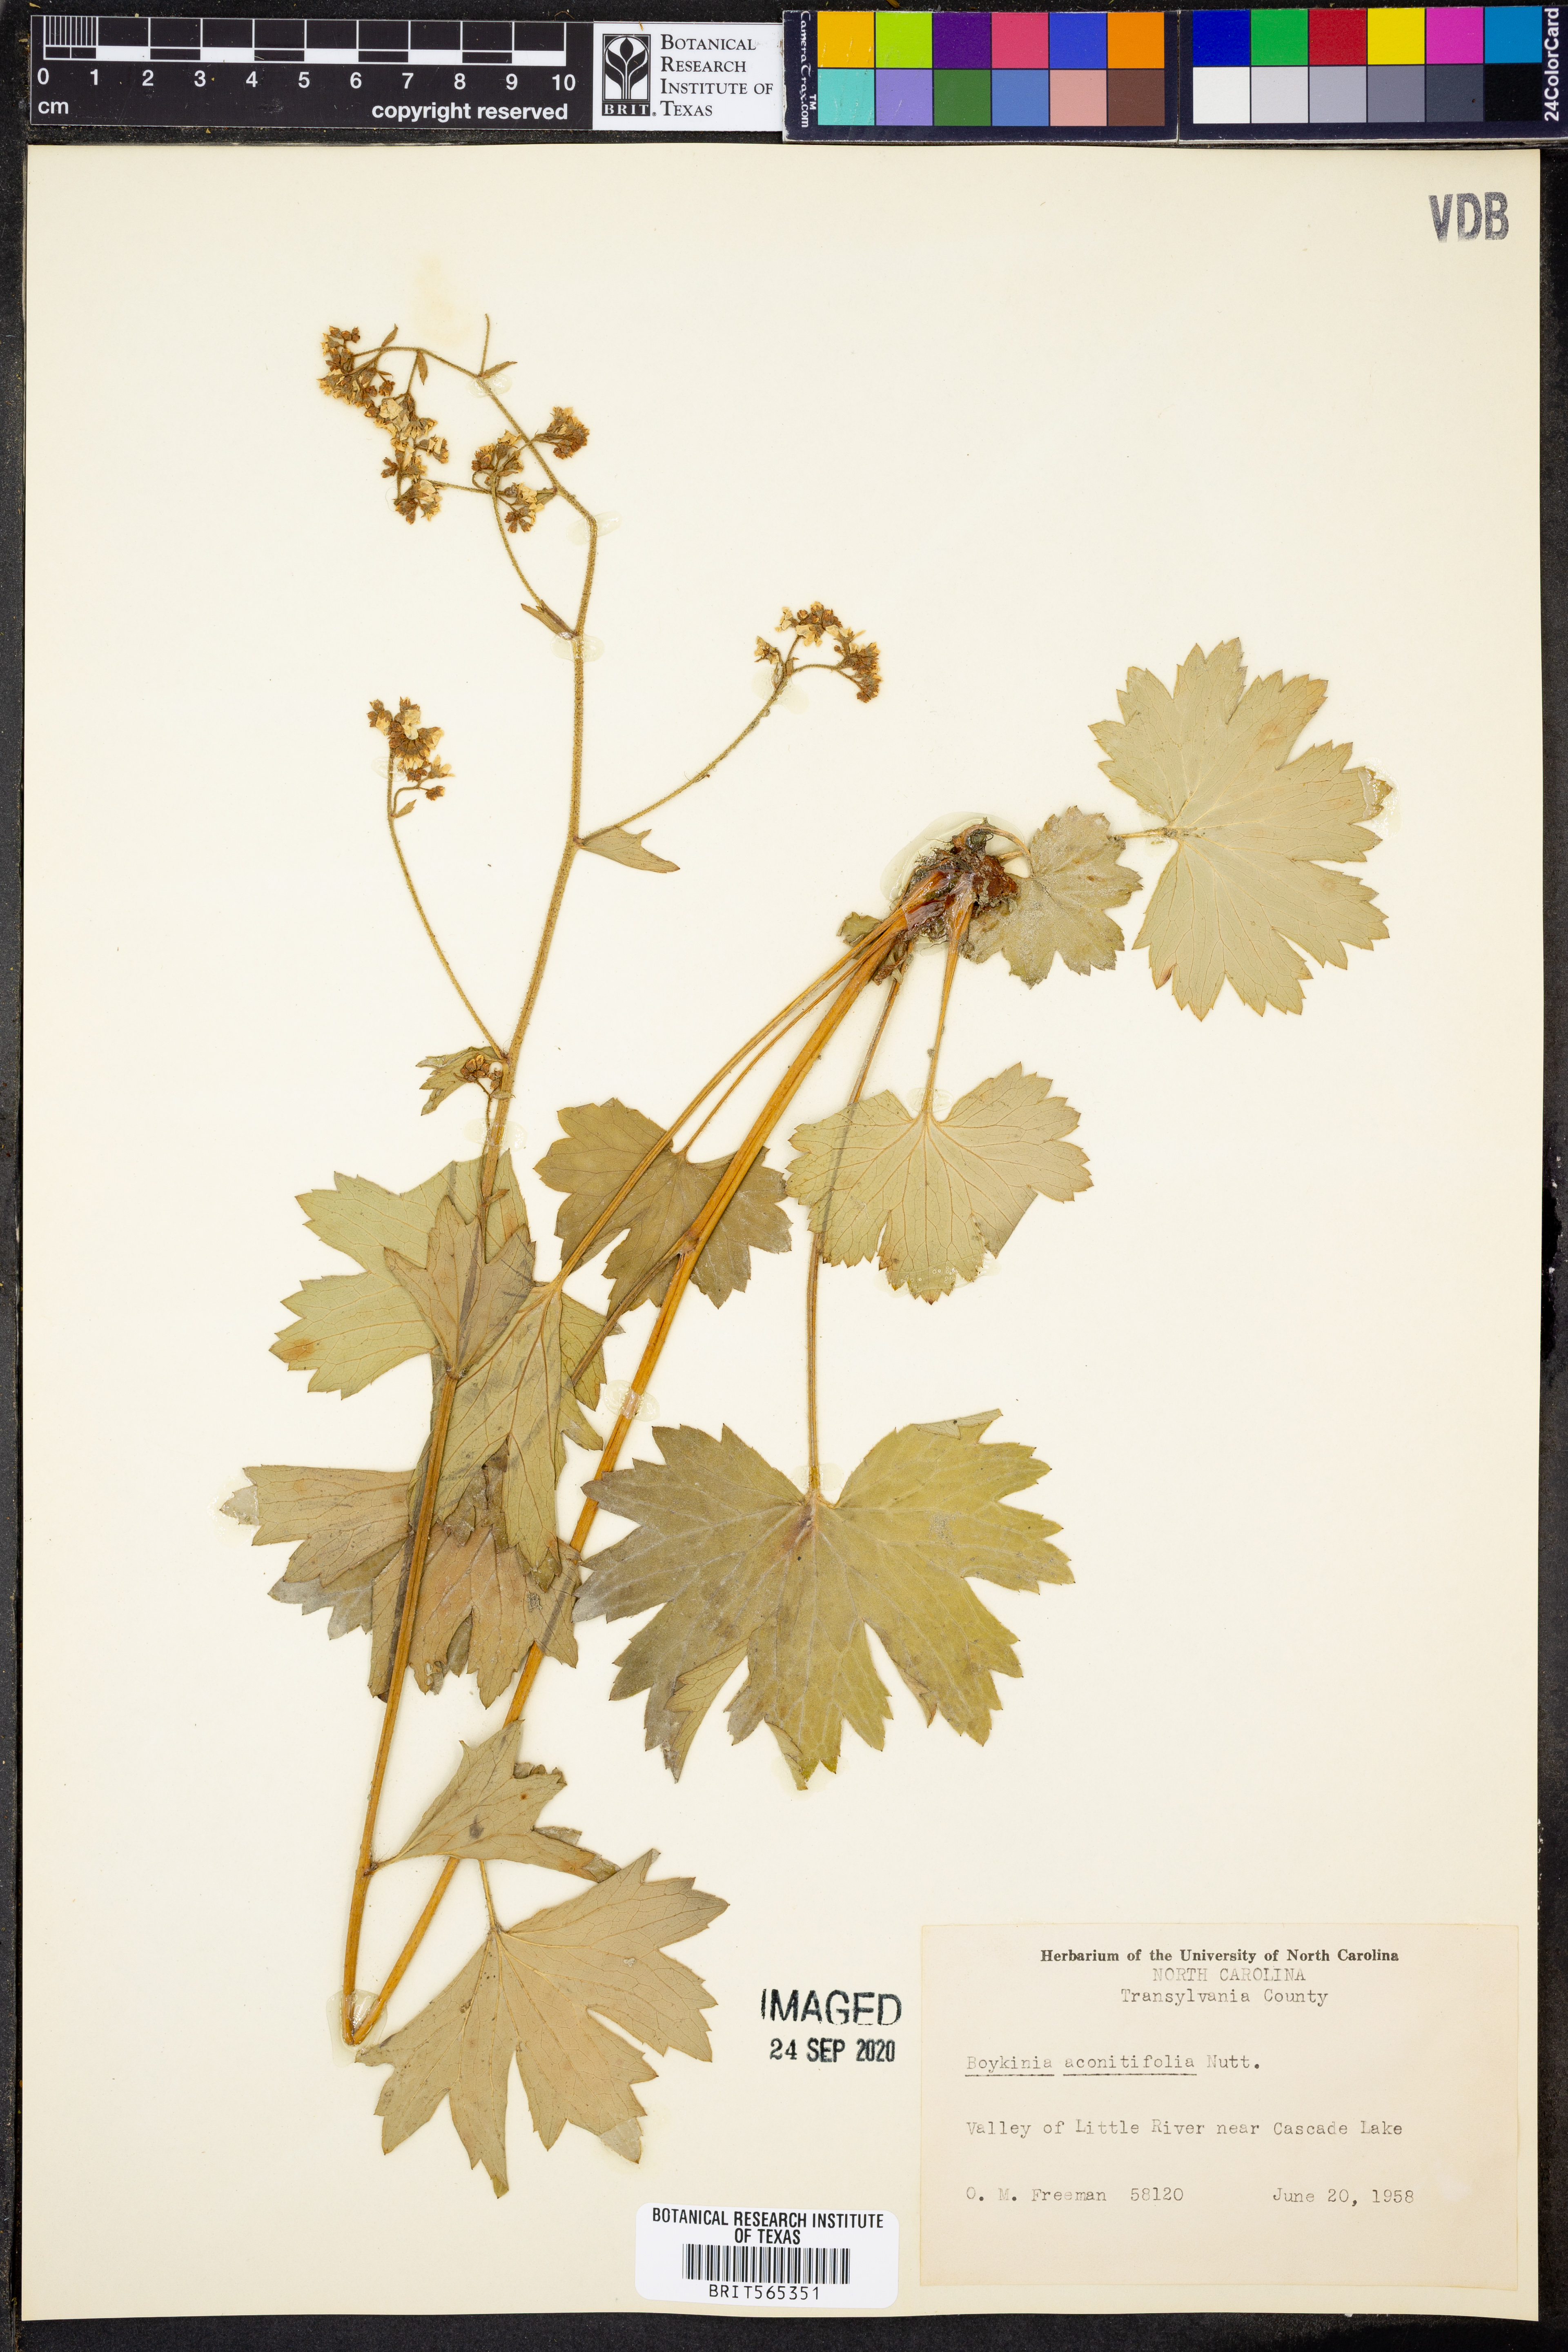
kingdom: Plantae
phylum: Tracheophyta
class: Magnoliopsida
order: Saxifragales
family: Saxifragaceae
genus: Boykinia
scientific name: Boykinia aconitifolia
